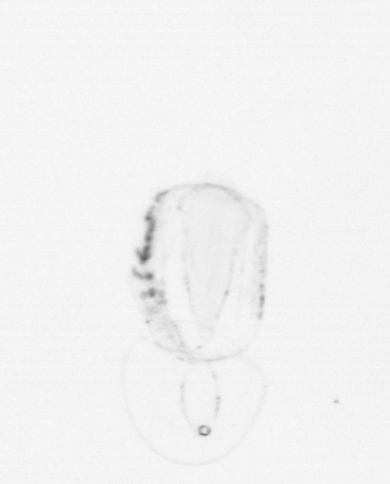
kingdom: Animalia
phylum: Chordata
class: Thaliacea
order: Salpida
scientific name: Salpida
